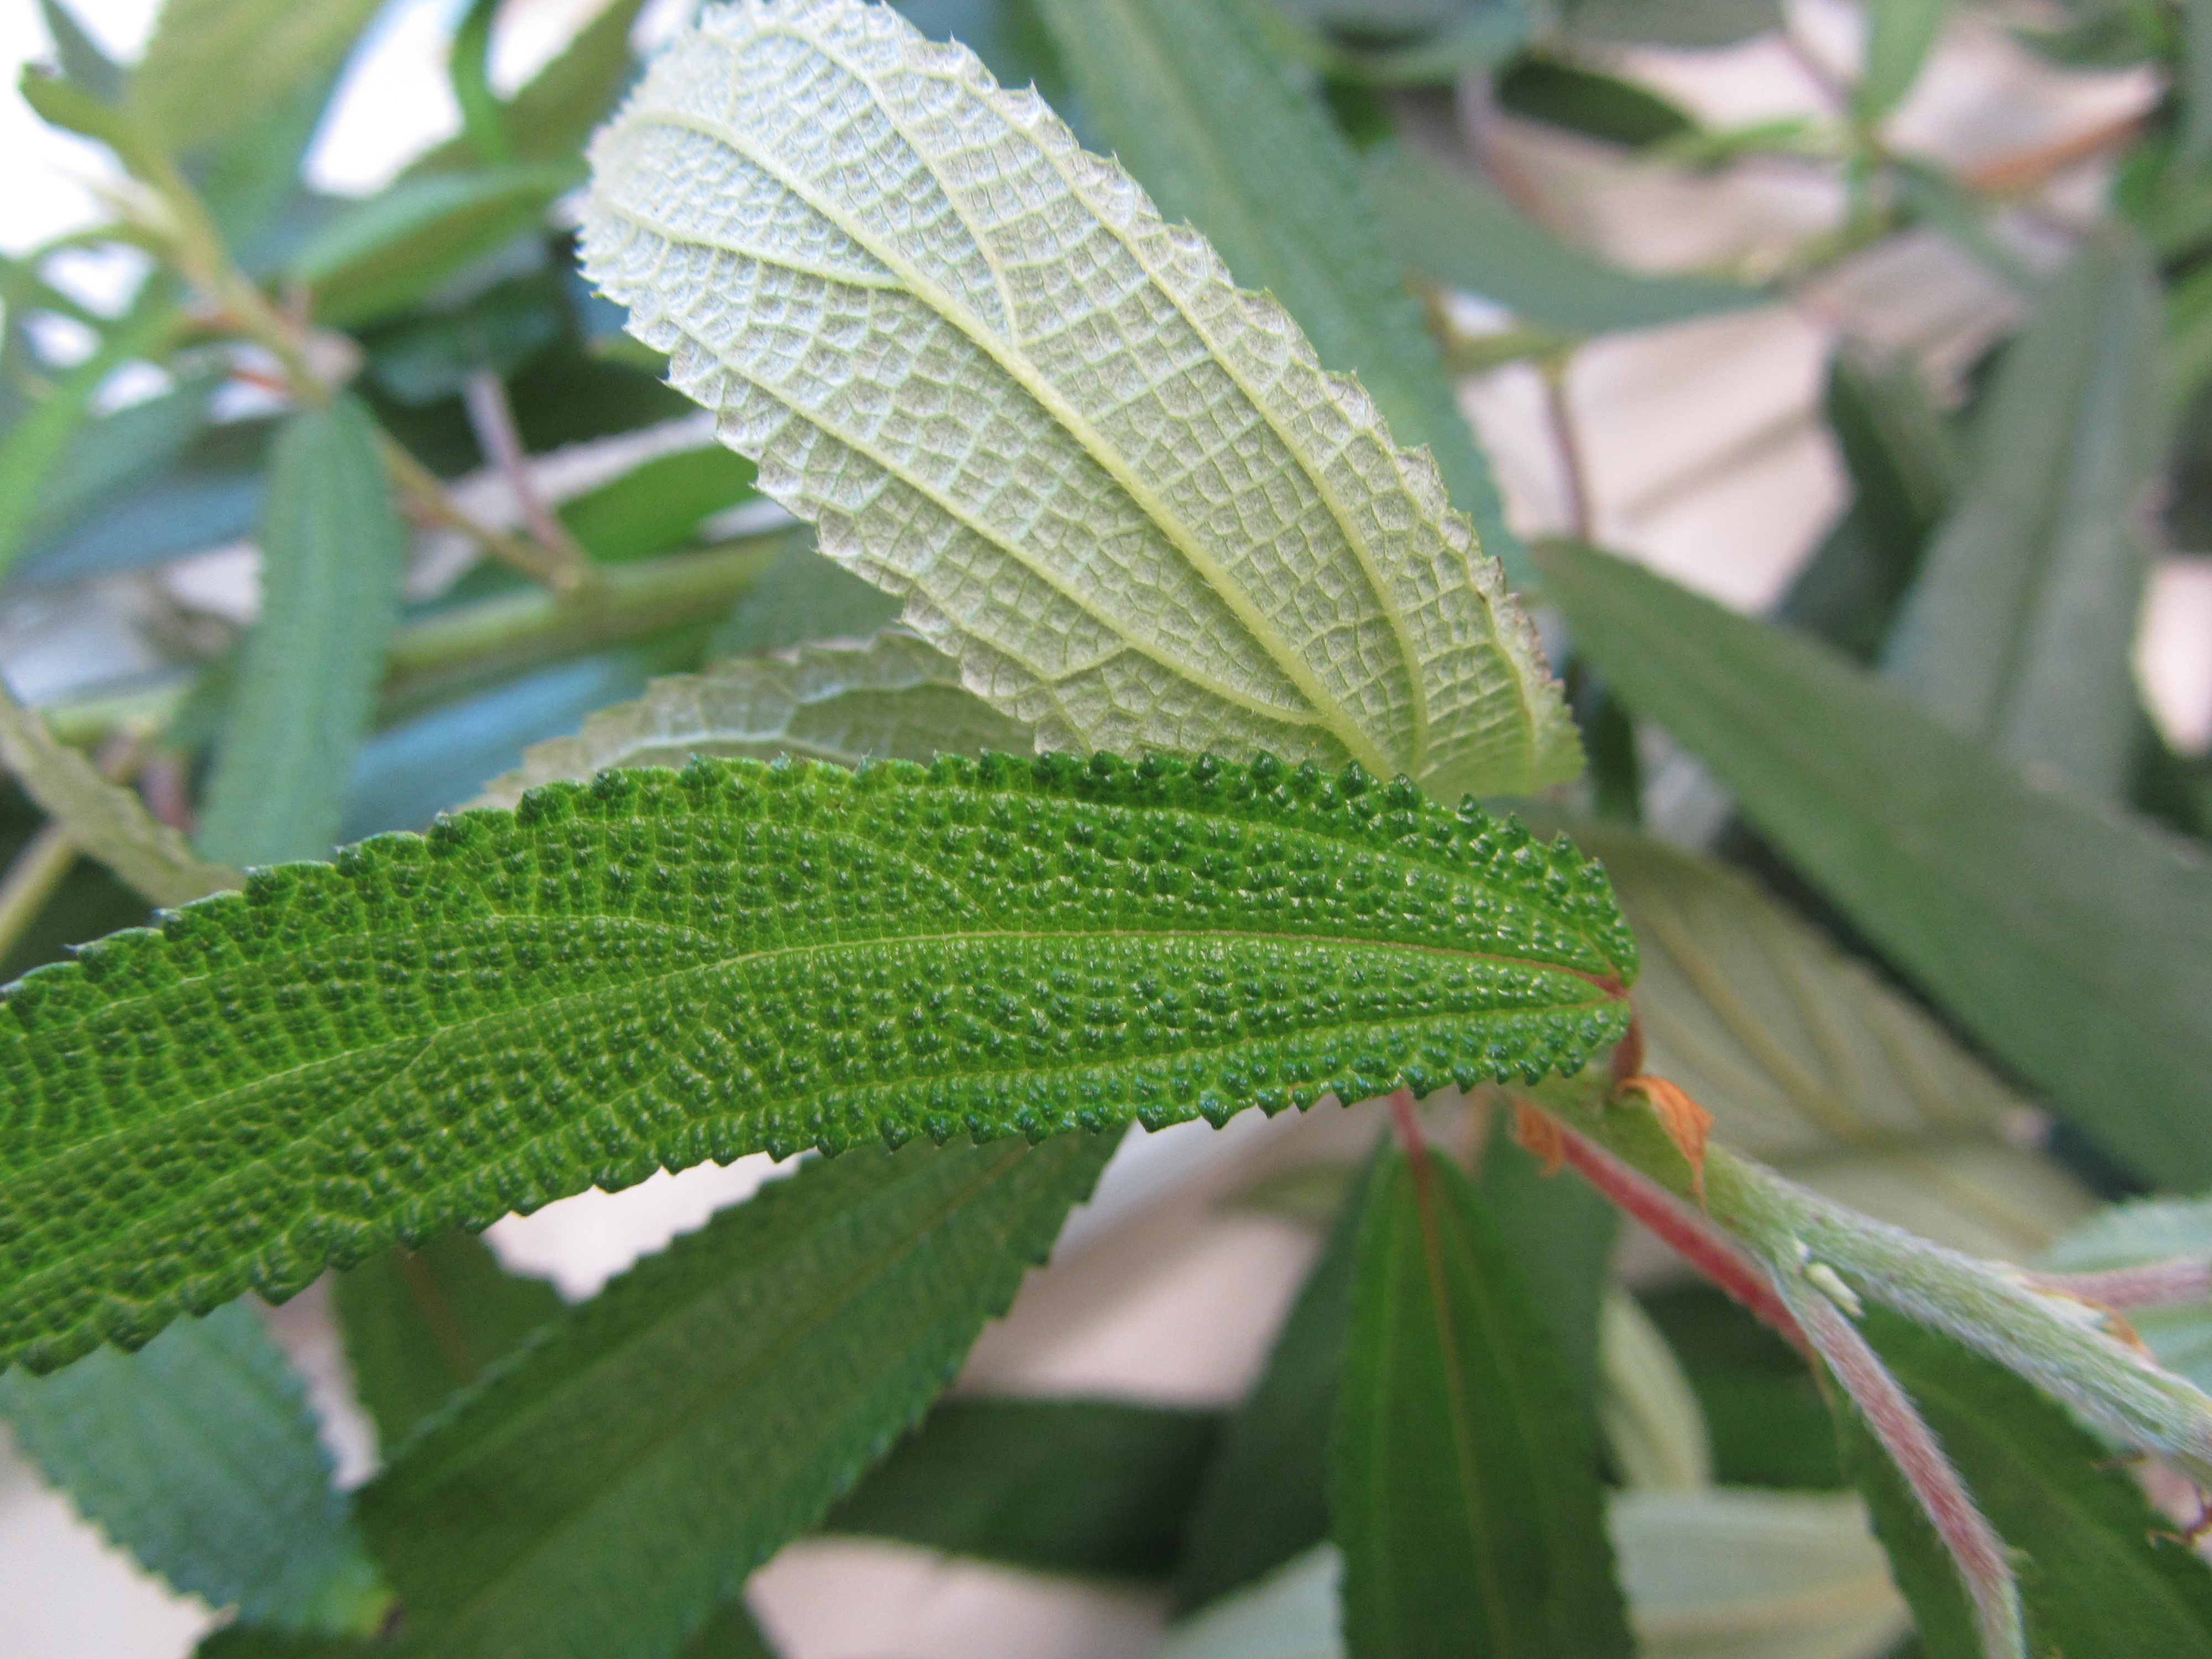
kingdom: Plantae
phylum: Tracheophyta
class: Magnoliopsida
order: Rosales
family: Urticaceae
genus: Debregeasia
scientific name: Debregeasia longifolia
